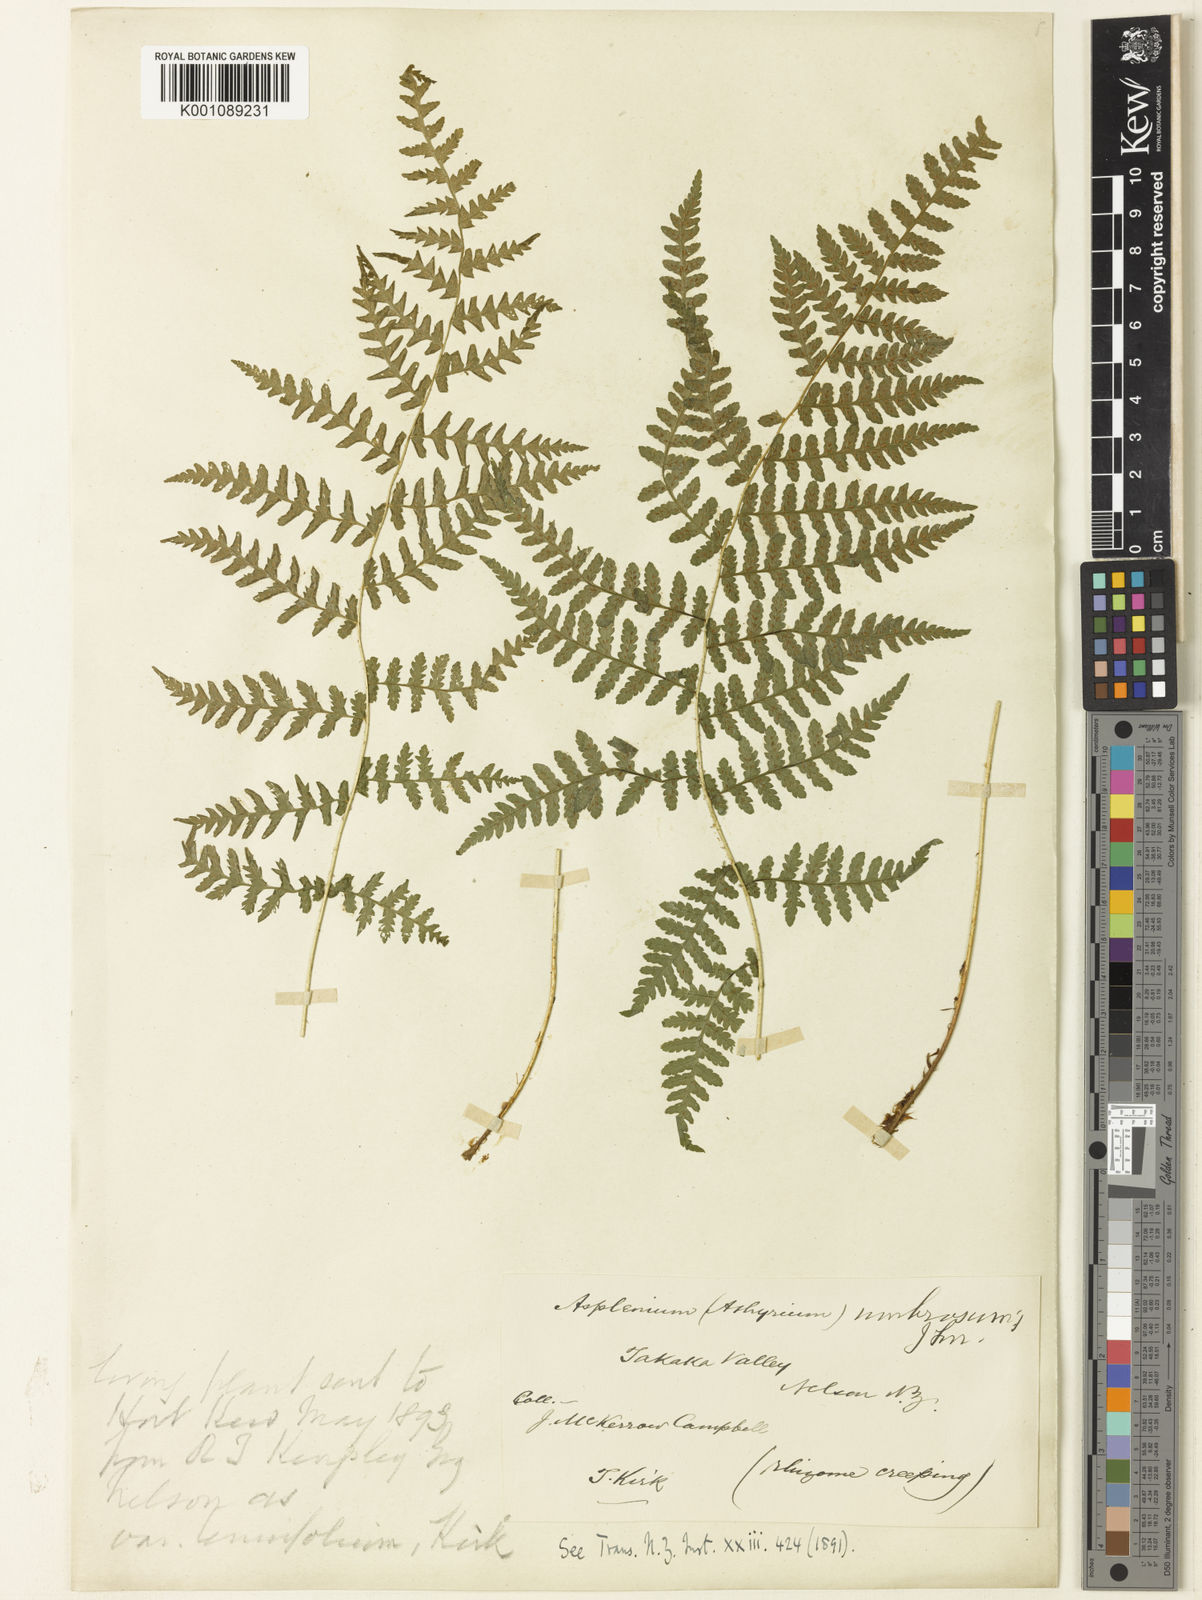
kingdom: Plantae
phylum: Tracheophyta
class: Polypodiopsida
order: Polypodiales
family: Athyriaceae
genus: Deparia
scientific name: Deparia
